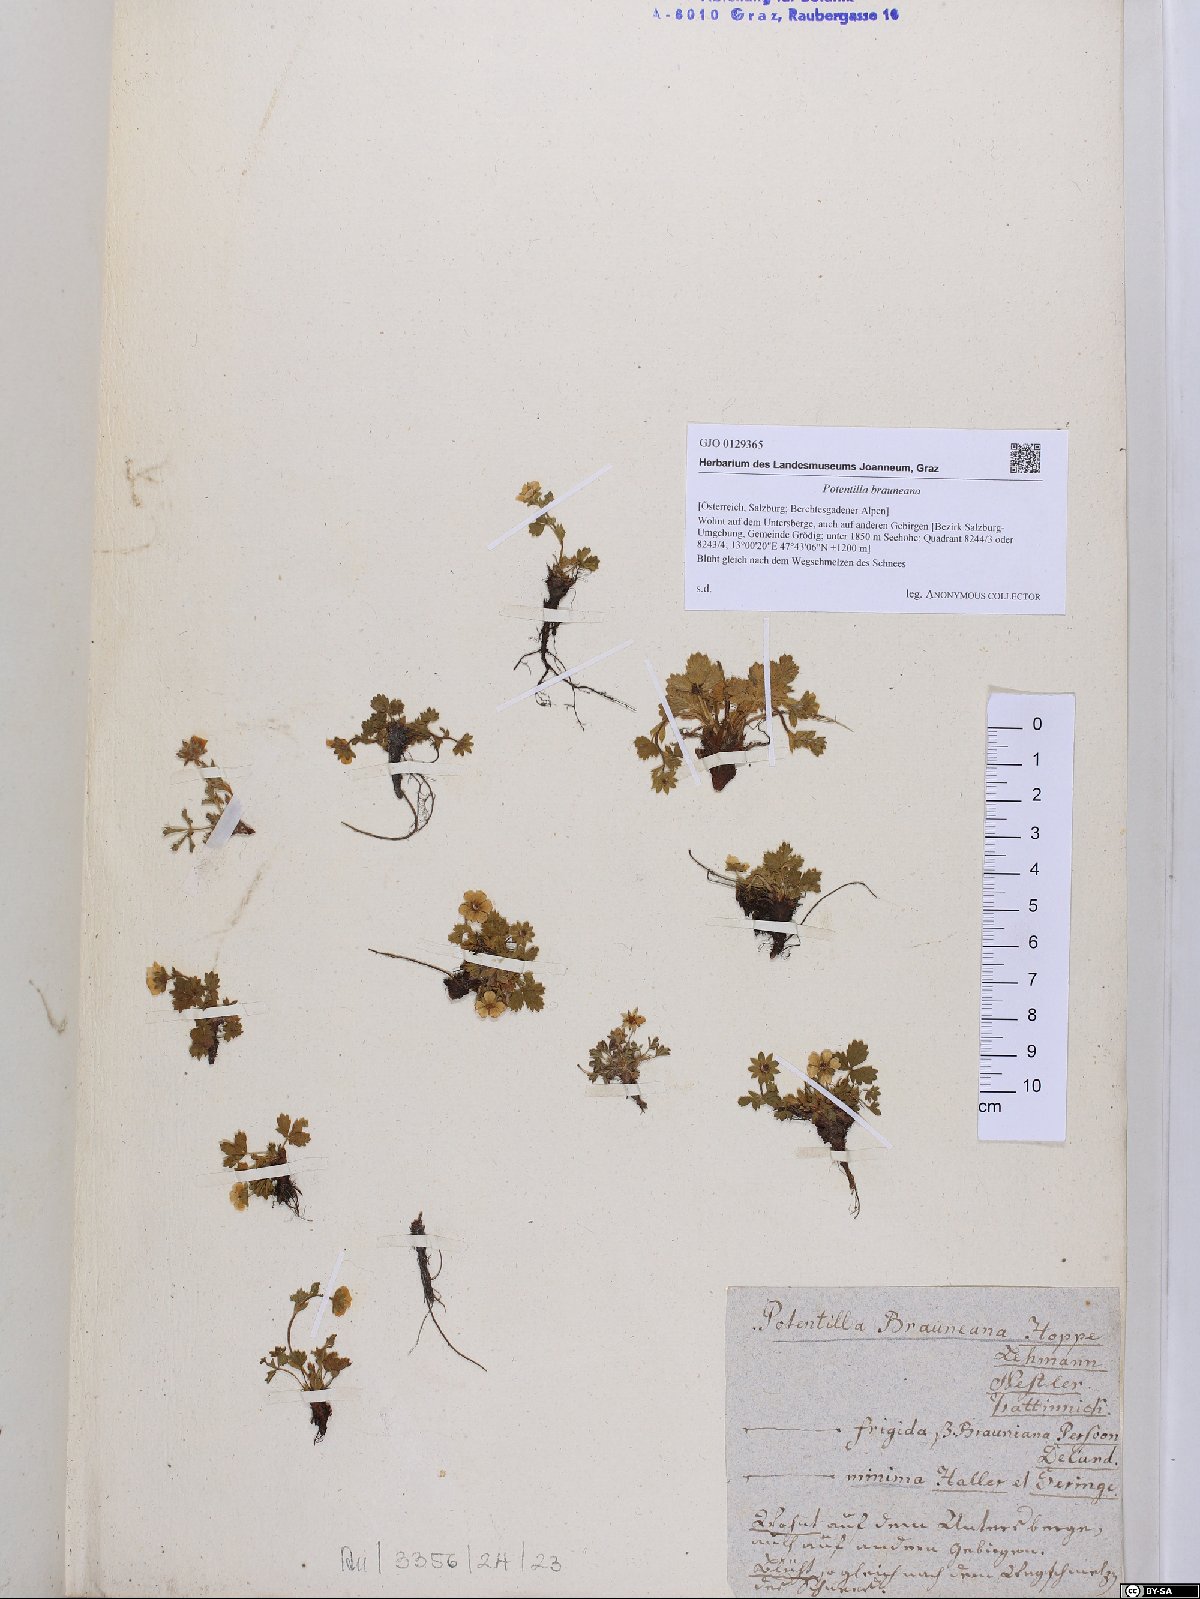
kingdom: Plantae
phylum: Tracheophyta
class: Magnoliopsida
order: Rosales
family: Rosaceae
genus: Potentilla
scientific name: Potentilla brauneana
